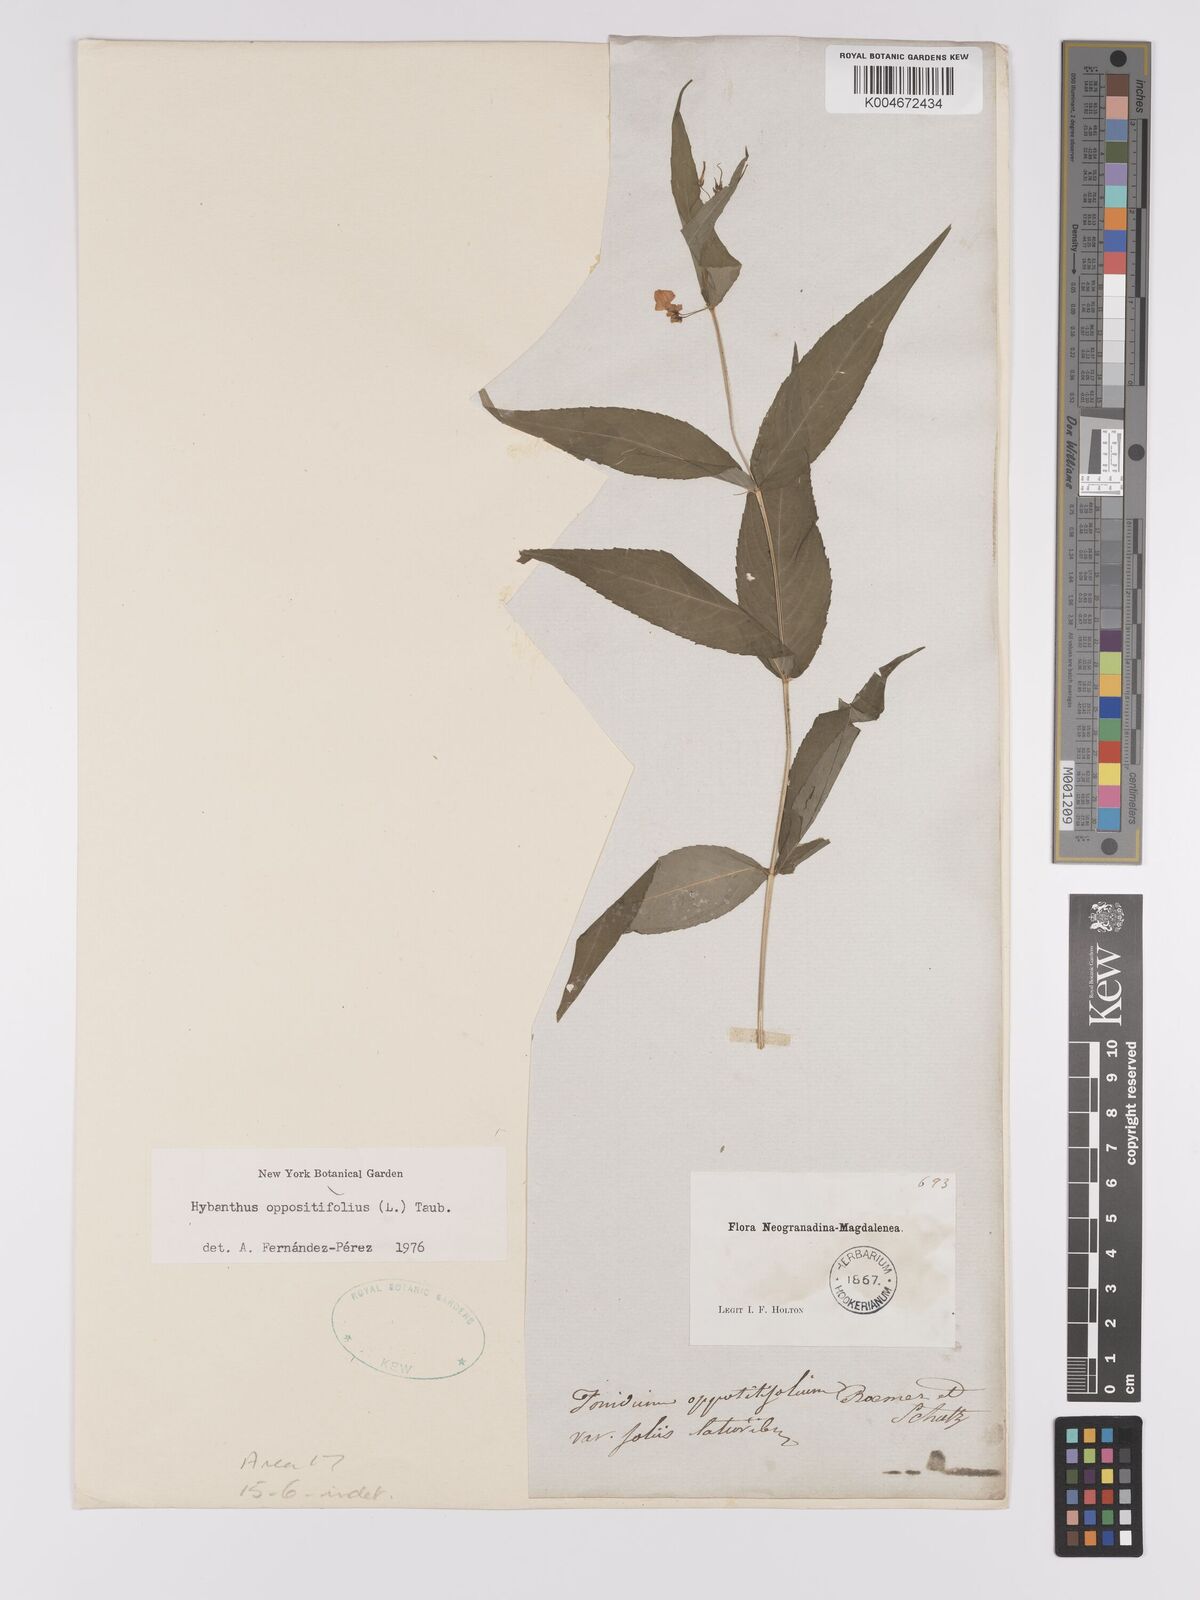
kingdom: Plantae
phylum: Tracheophyta
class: Magnoliopsida
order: Malpighiales
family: Violaceae
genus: Pombalia
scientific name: Pombalia oppositifolia
